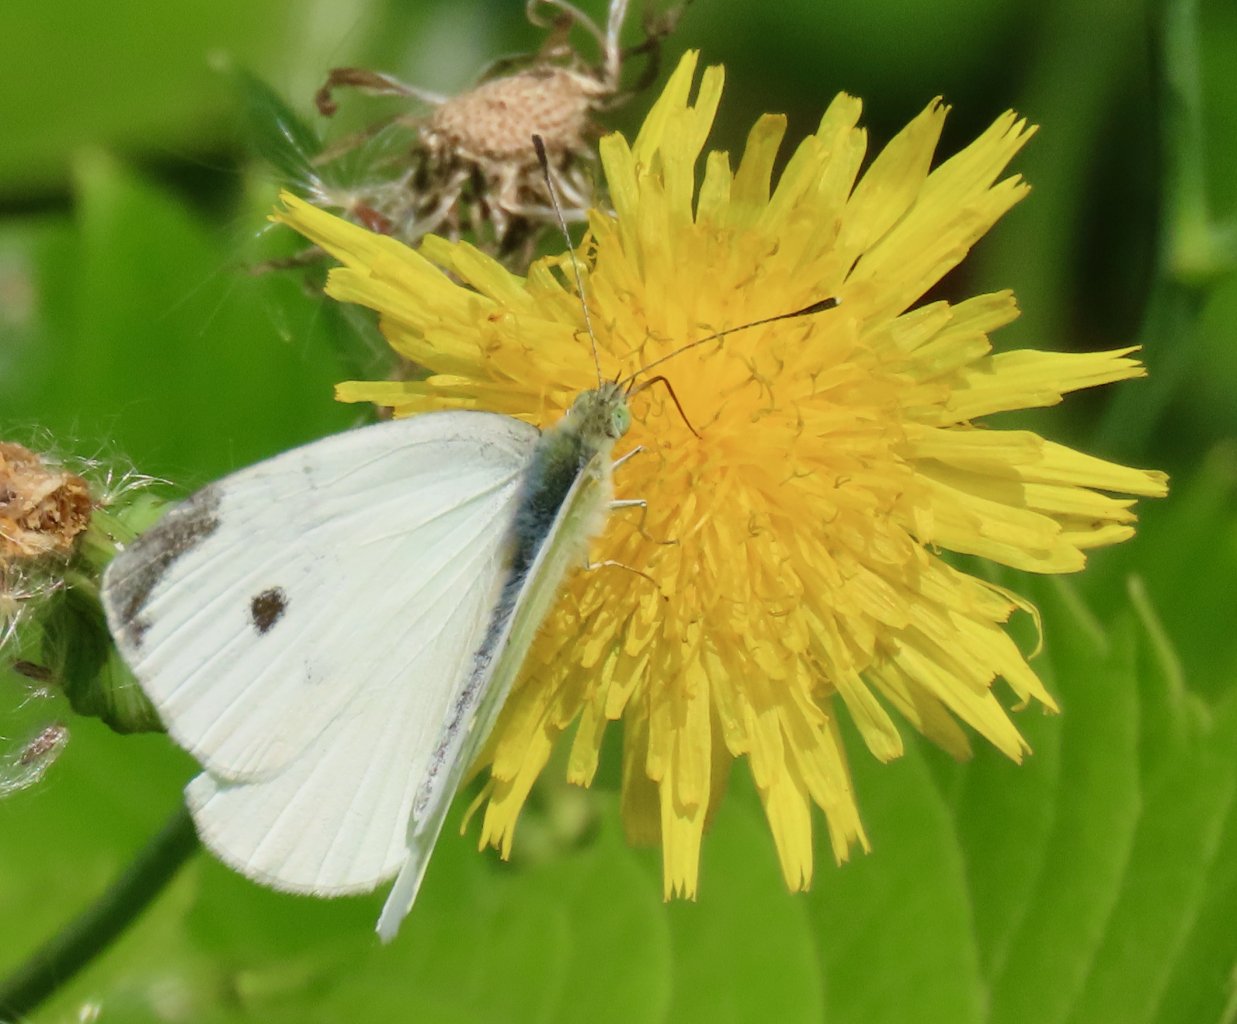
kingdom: Animalia
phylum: Arthropoda
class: Insecta
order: Lepidoptera
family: Pieridae
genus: Pieris
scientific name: Pieris rapae
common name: Cabbage White
